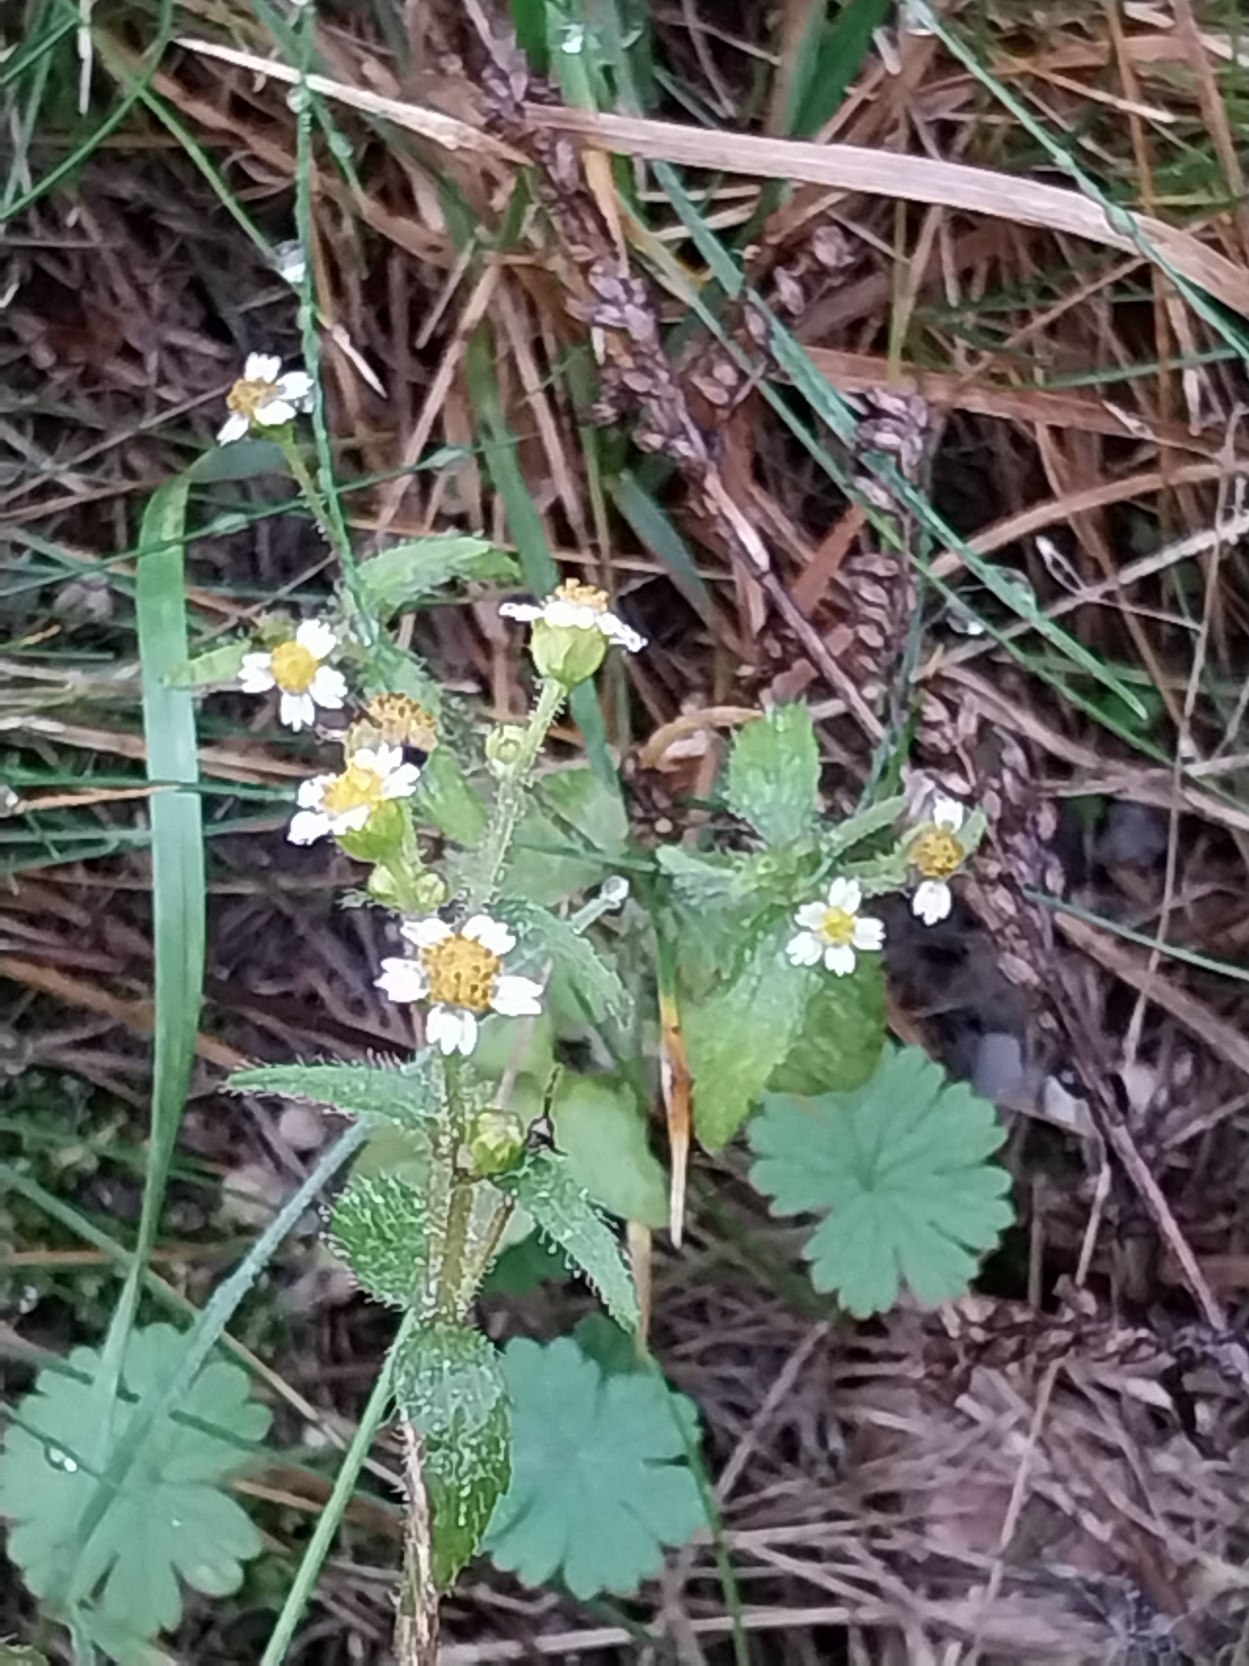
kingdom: Plantae
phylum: Tracheophyta
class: Magnoliopsida
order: Asterales
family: Asteraceae
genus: Galinsoga
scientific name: Galinsoga quadriradiata
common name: Kirtel-kortstråle
